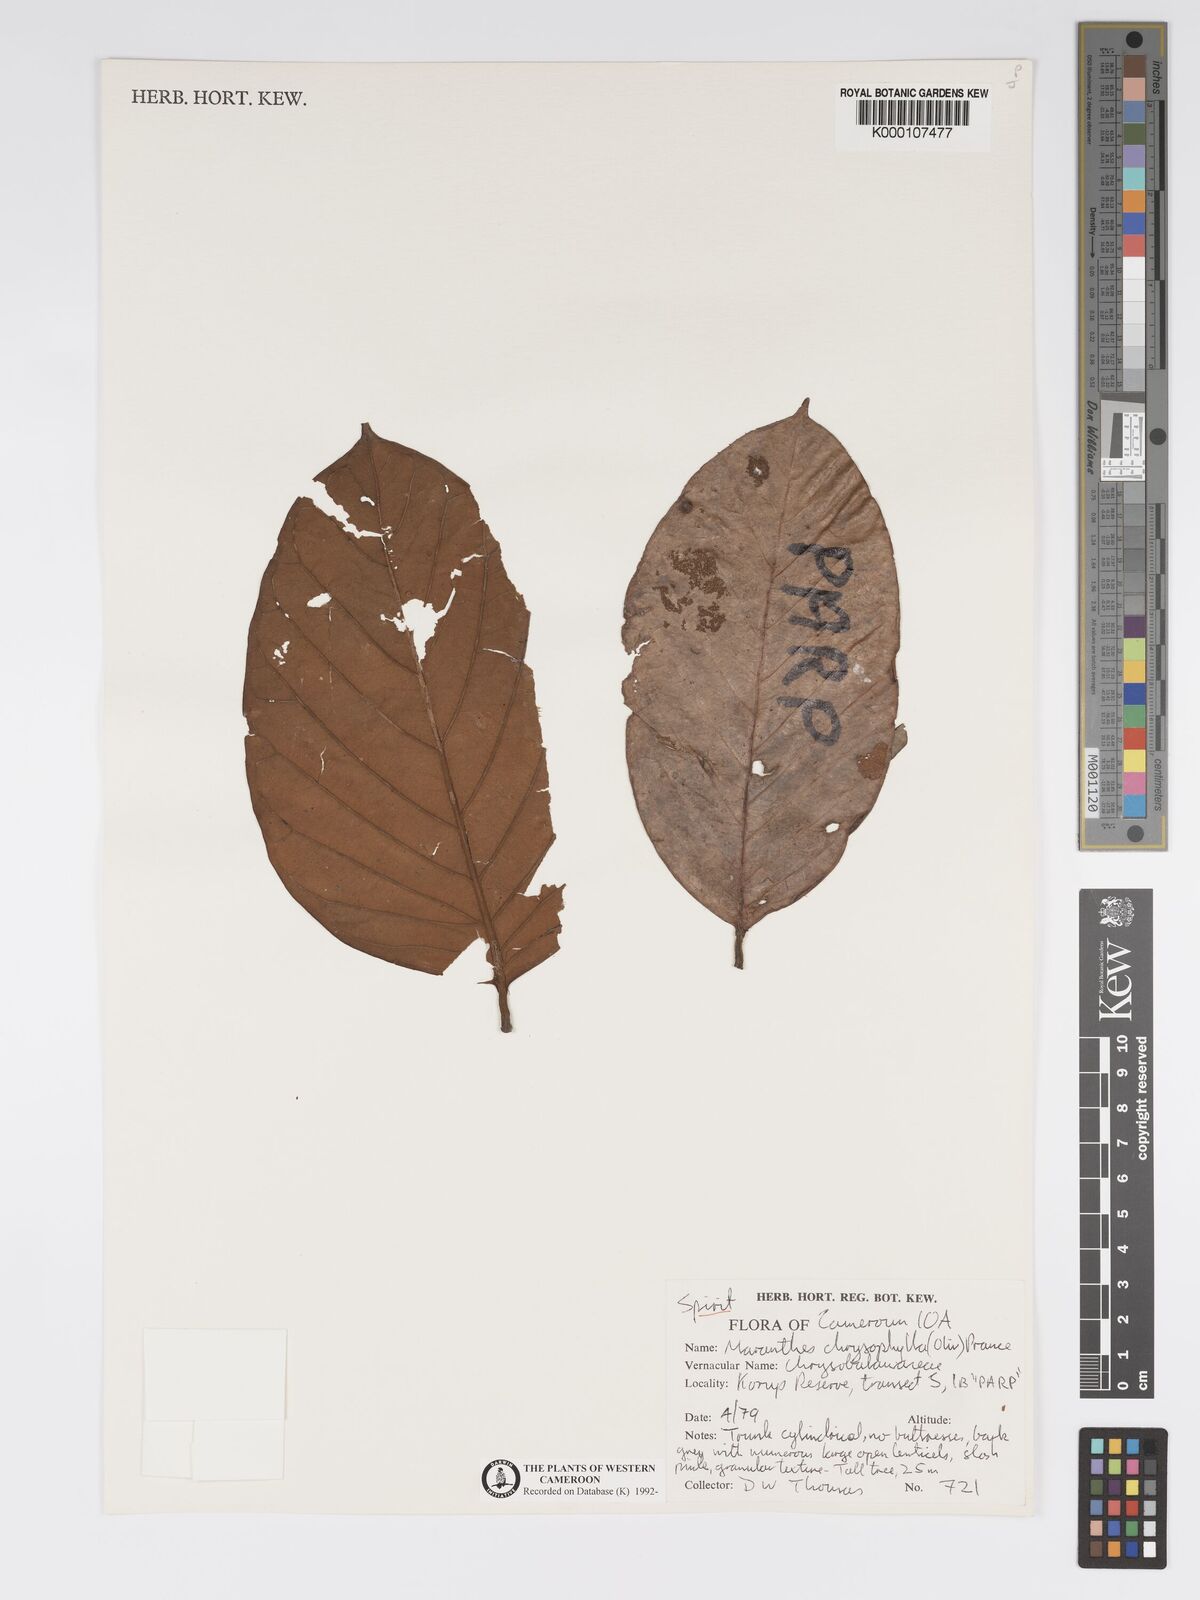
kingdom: Plantae
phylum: Tracheophyta
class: Magnoliopsida
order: Malpighiales
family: Chrysobalanaceae
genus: Maranthes
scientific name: Maranthes
